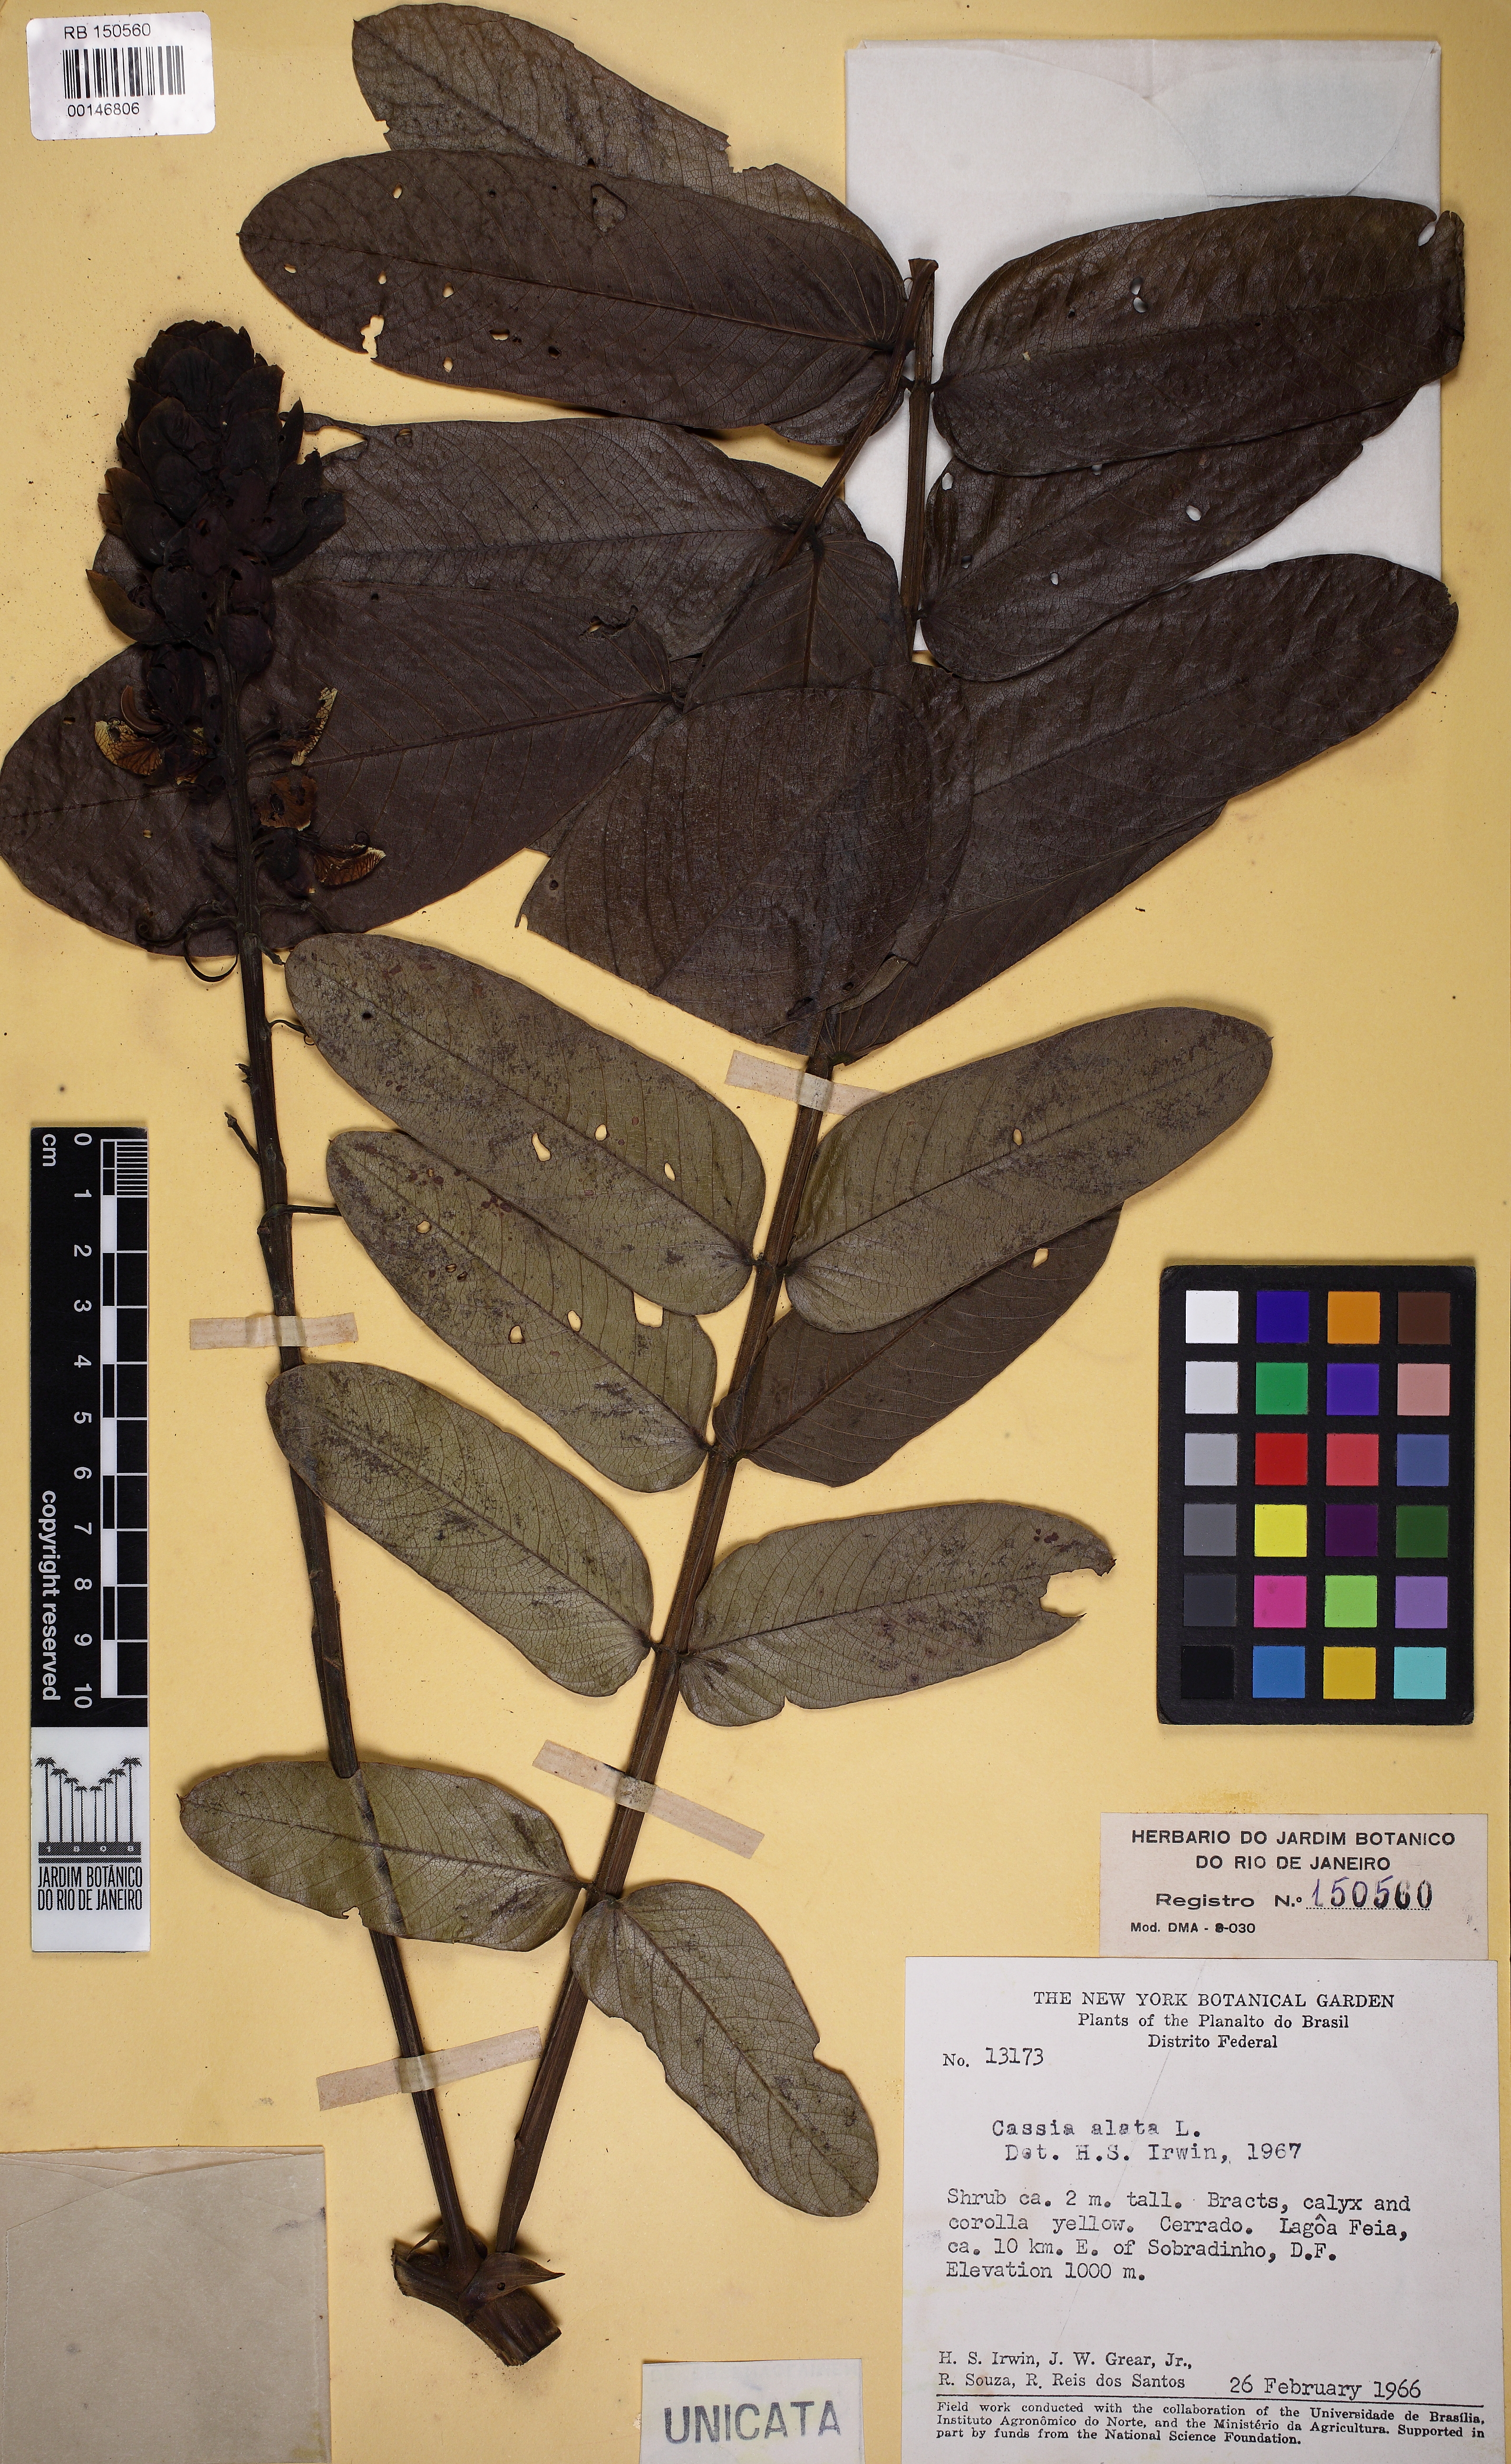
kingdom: Plantae
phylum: Tracheophyta
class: Magnoliopsida
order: Fabales
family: Fabaceae
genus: Senna
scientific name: Senna alata
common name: Emperor's candlesticks
